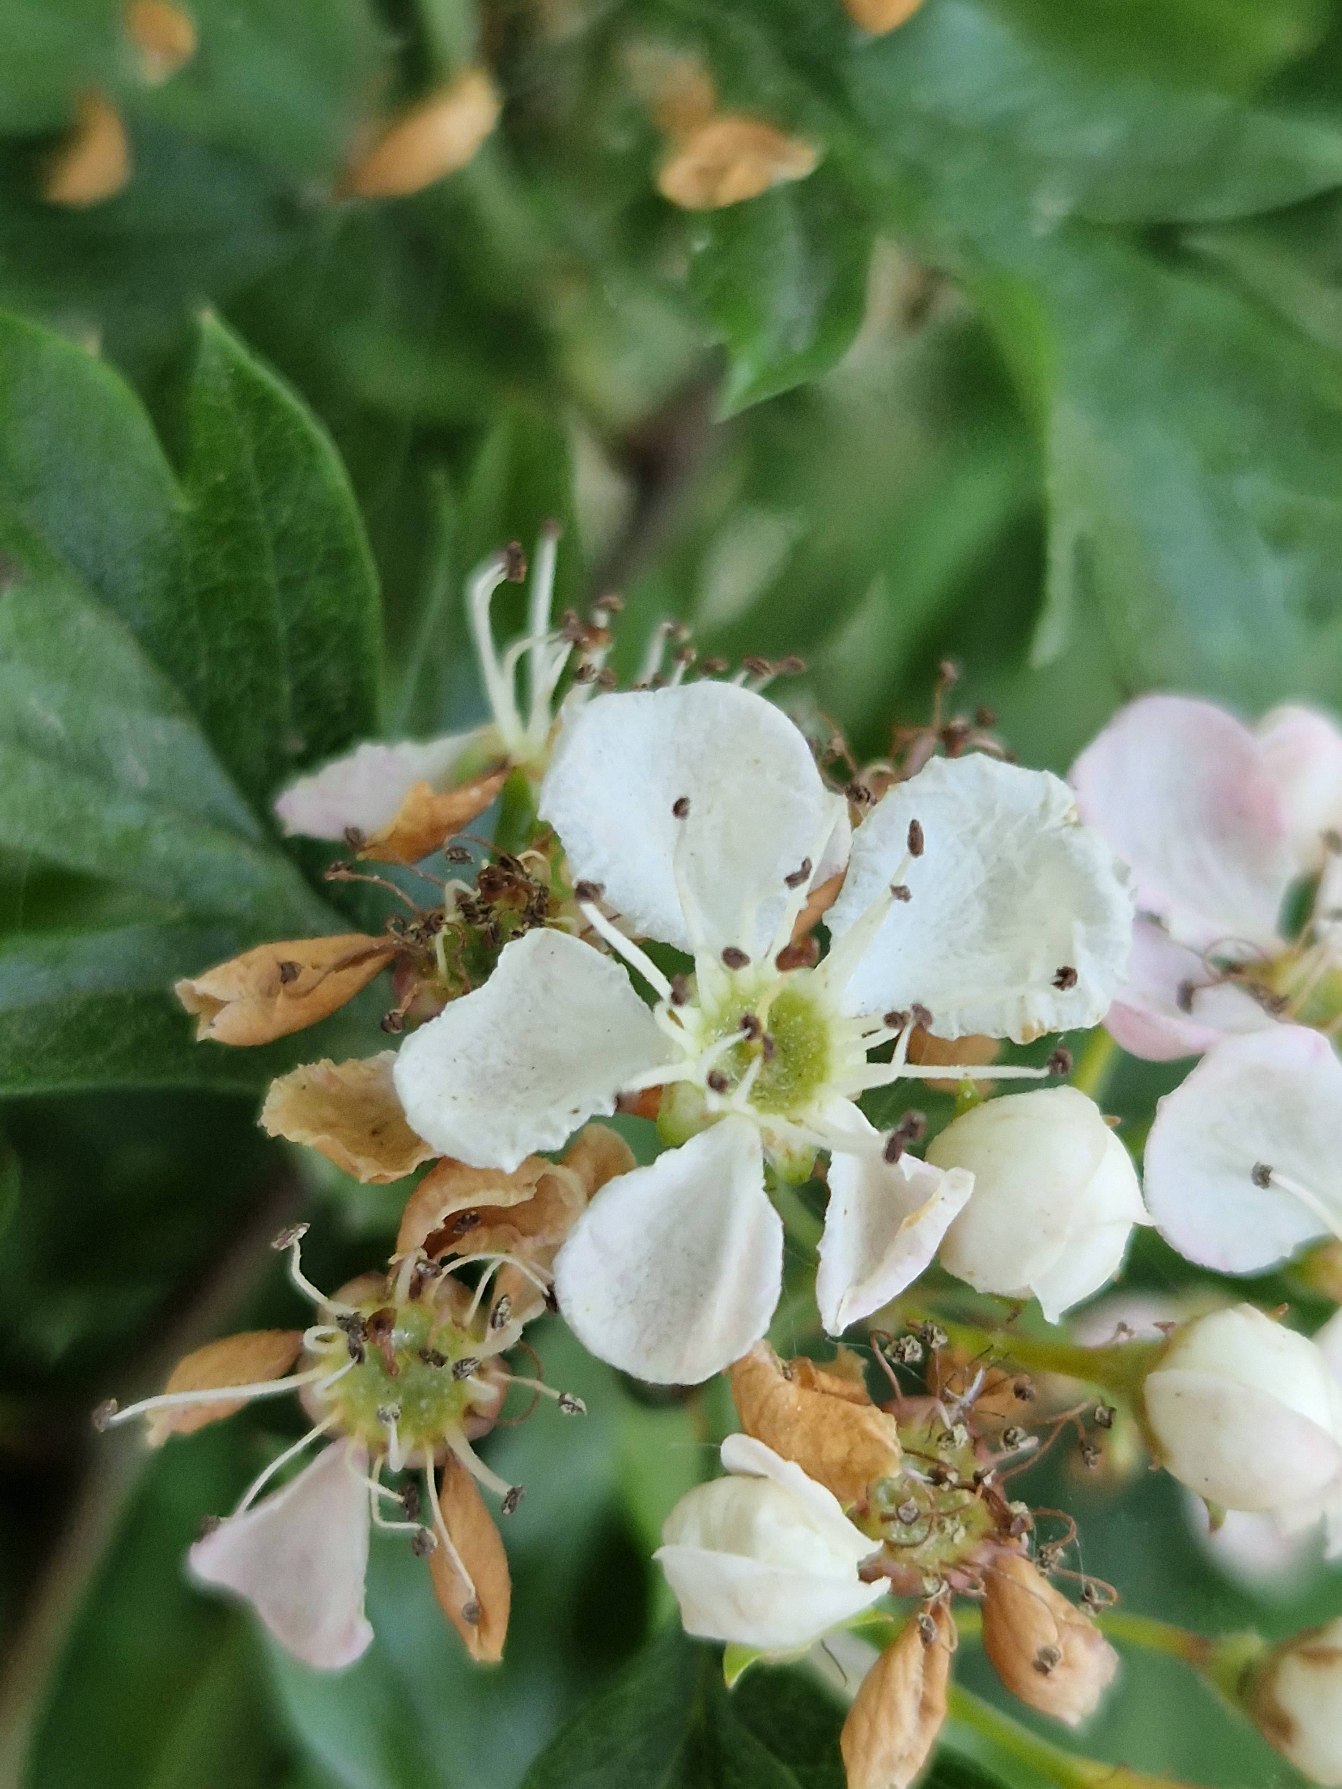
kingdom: Plantae
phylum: Tracheophyta
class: Magnoliopsida
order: Rosales
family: Rosaceae
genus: Crataegus
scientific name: Crataegus monogyna
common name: Engriflet hvidtjørn
